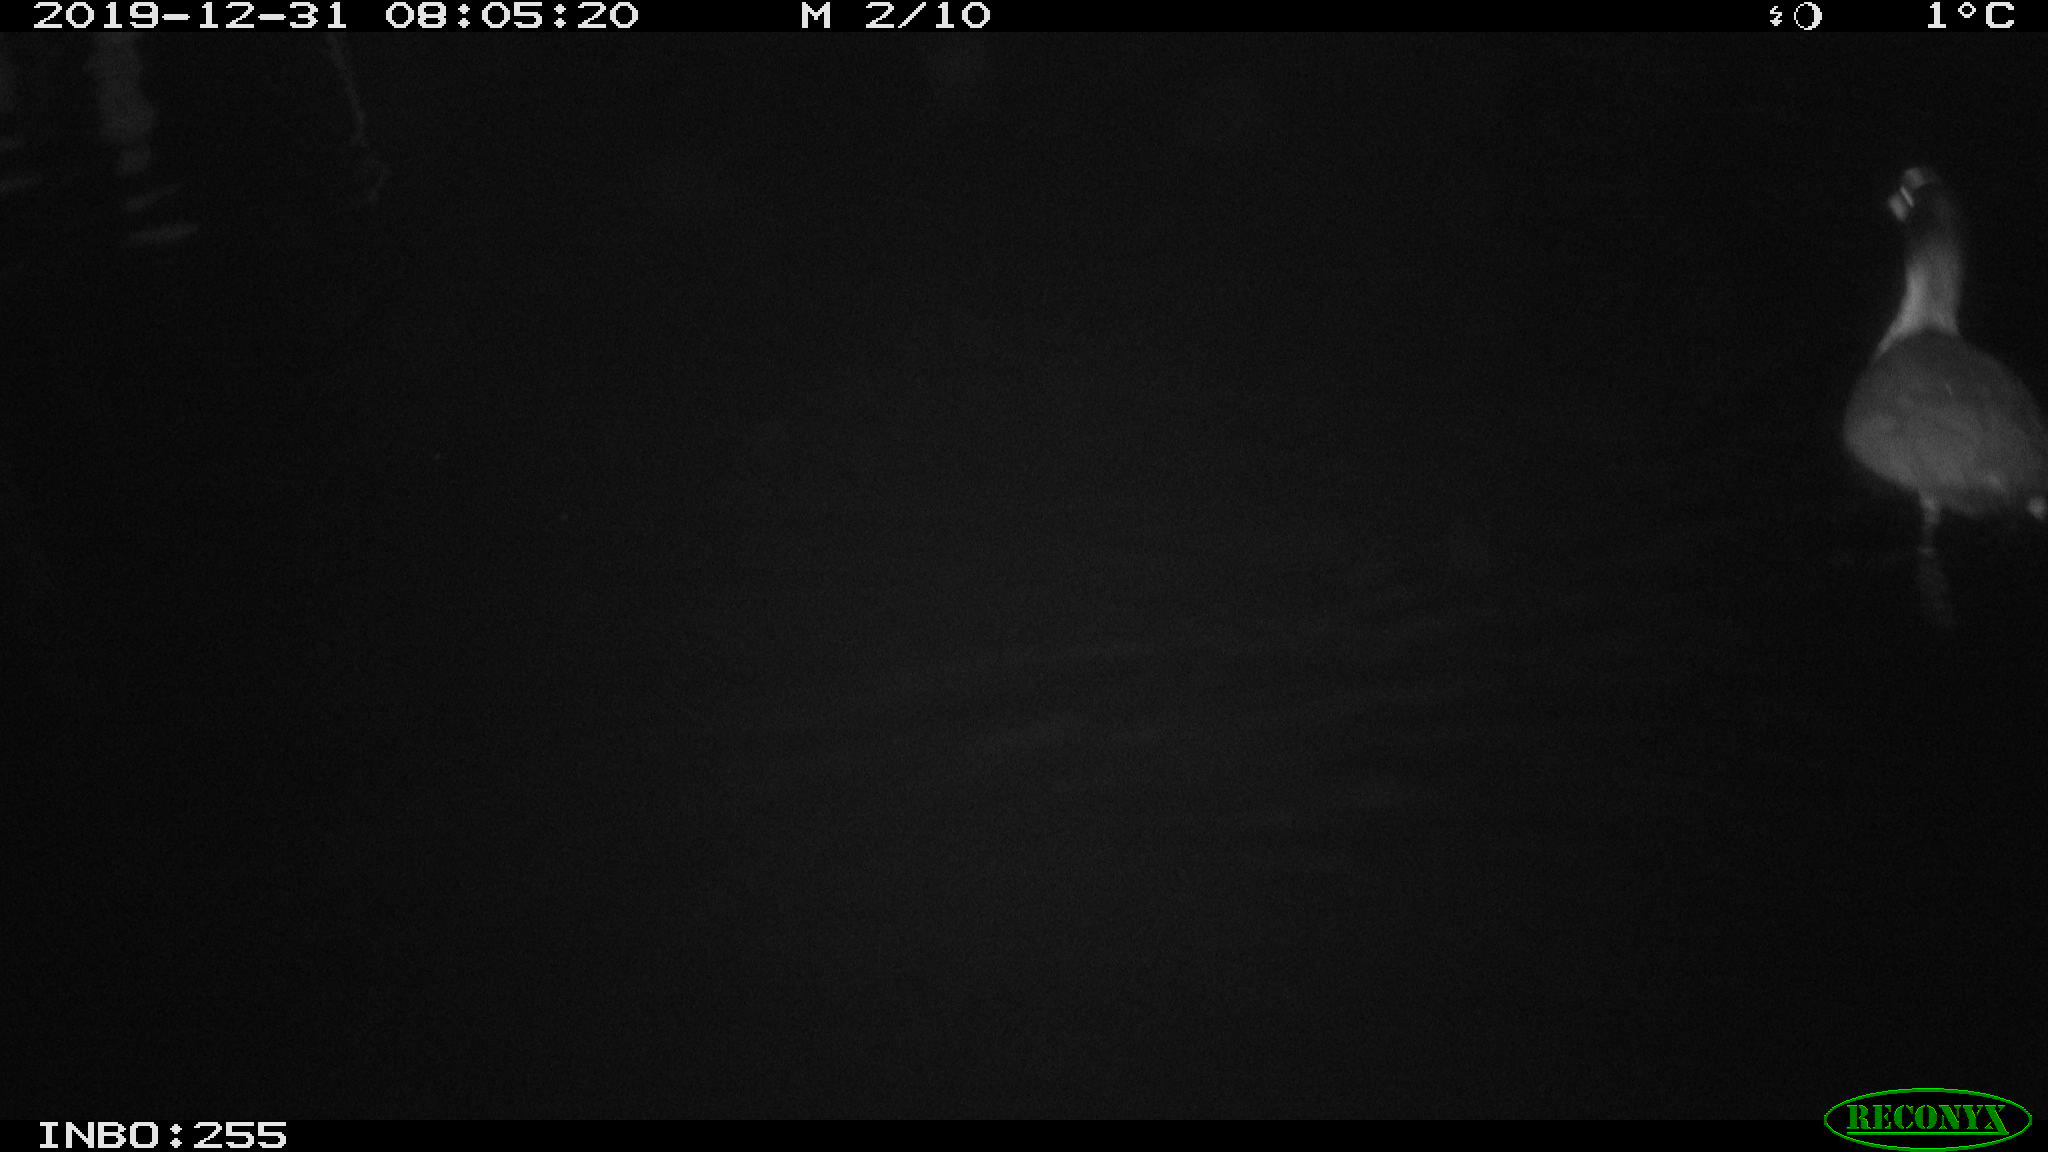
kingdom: Animalia
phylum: Chordata
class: Aves
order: Gruiformes
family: Rallidae
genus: Fulica
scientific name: Fulica atra
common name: Eurasian coot
